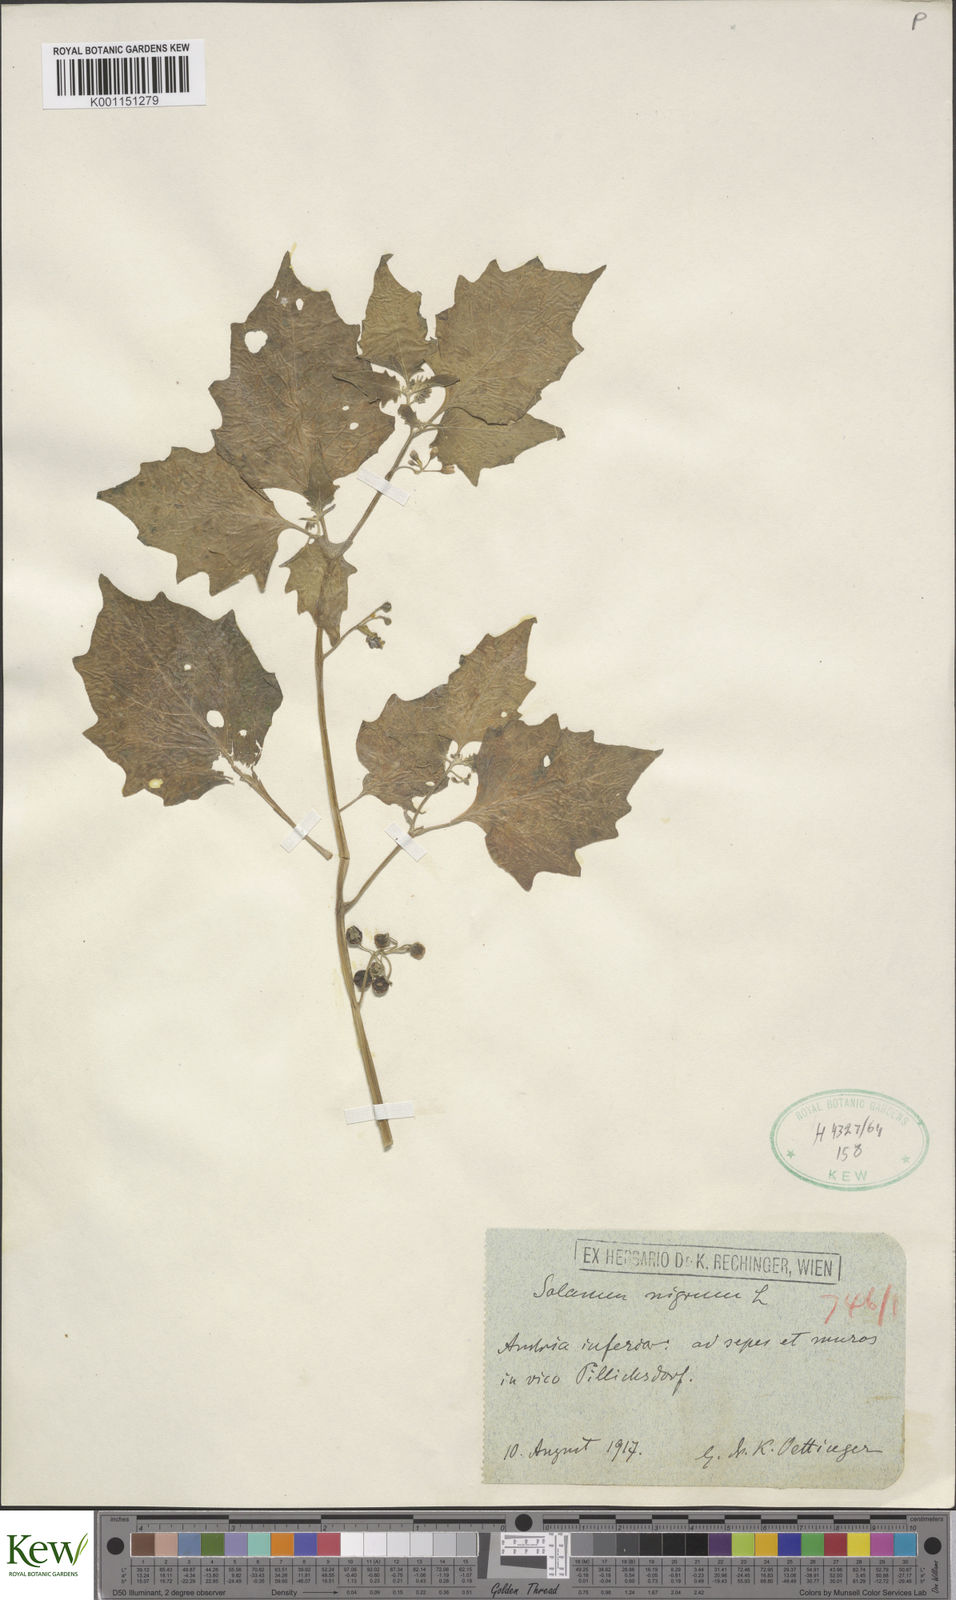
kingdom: Plantae
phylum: Tracheophyta
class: Magnoliopsida
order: Solanales
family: Solanaceae
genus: Solanum
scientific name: Solanum nigrum
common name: Black nightshade
